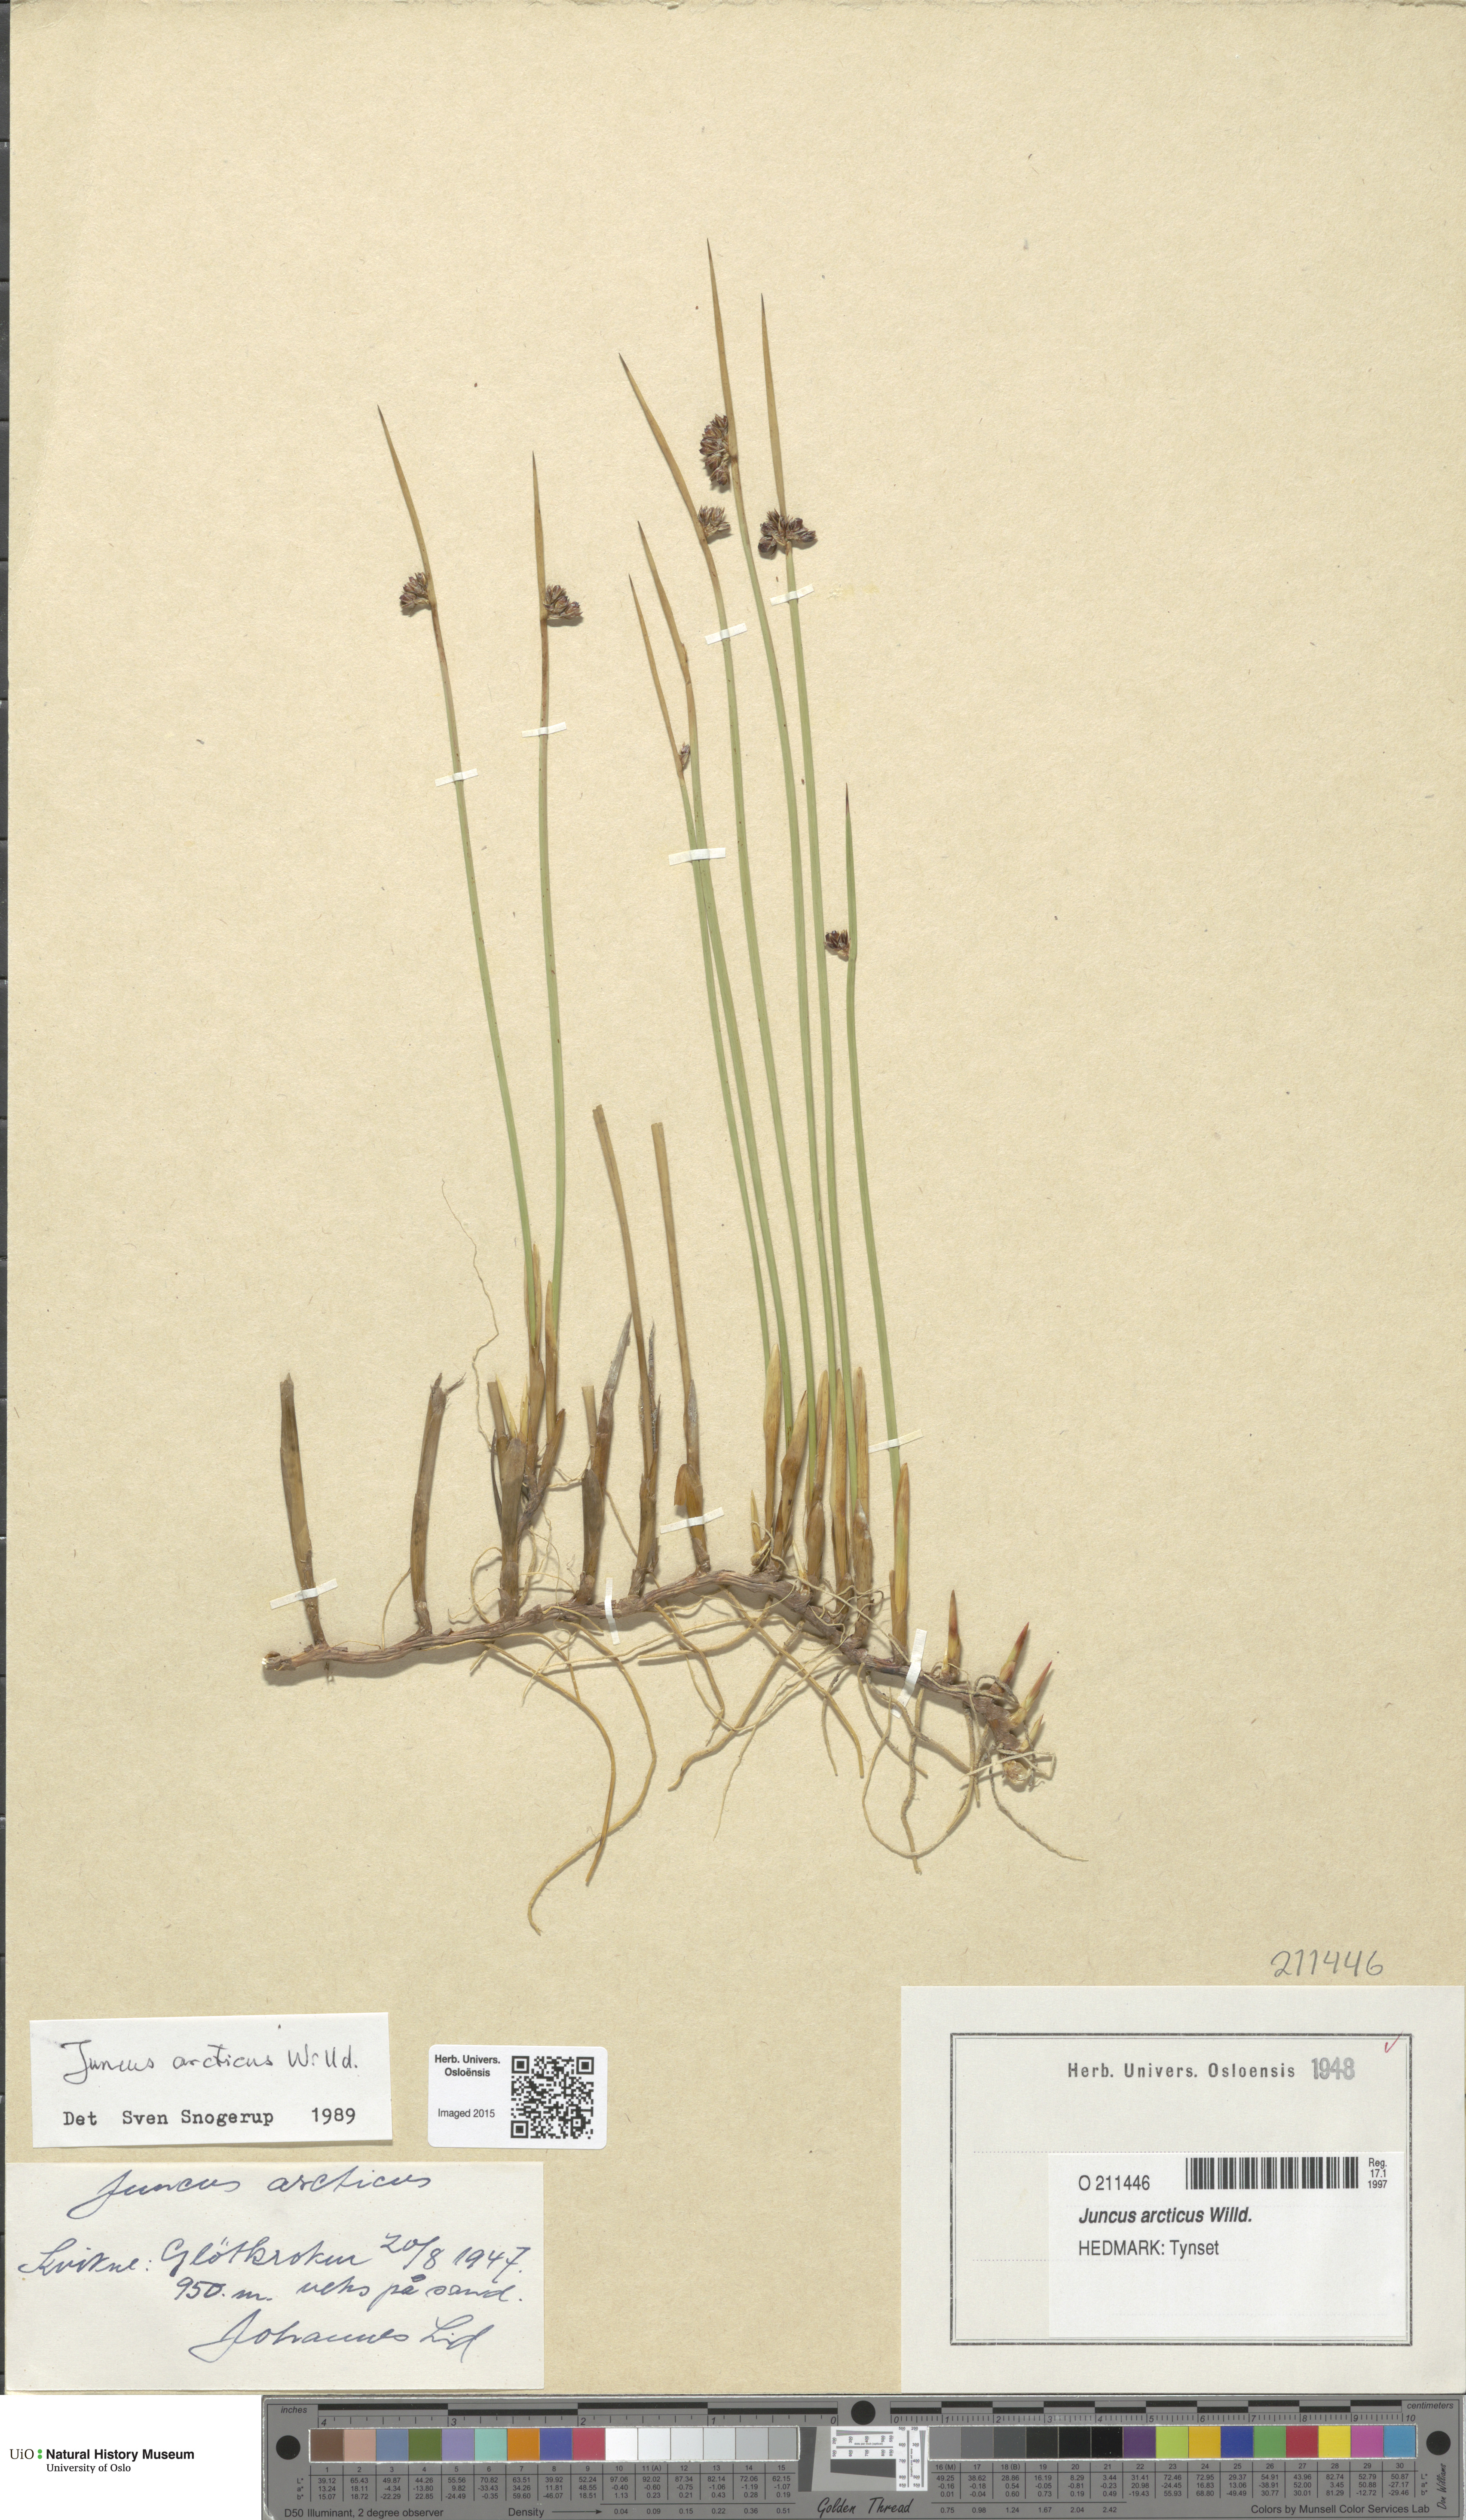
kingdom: Plantae
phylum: Tracheophyta
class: Liliopsida
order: Poales
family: Juncaceae
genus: Juncus
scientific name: Juncus arcticus
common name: Arctic rush
